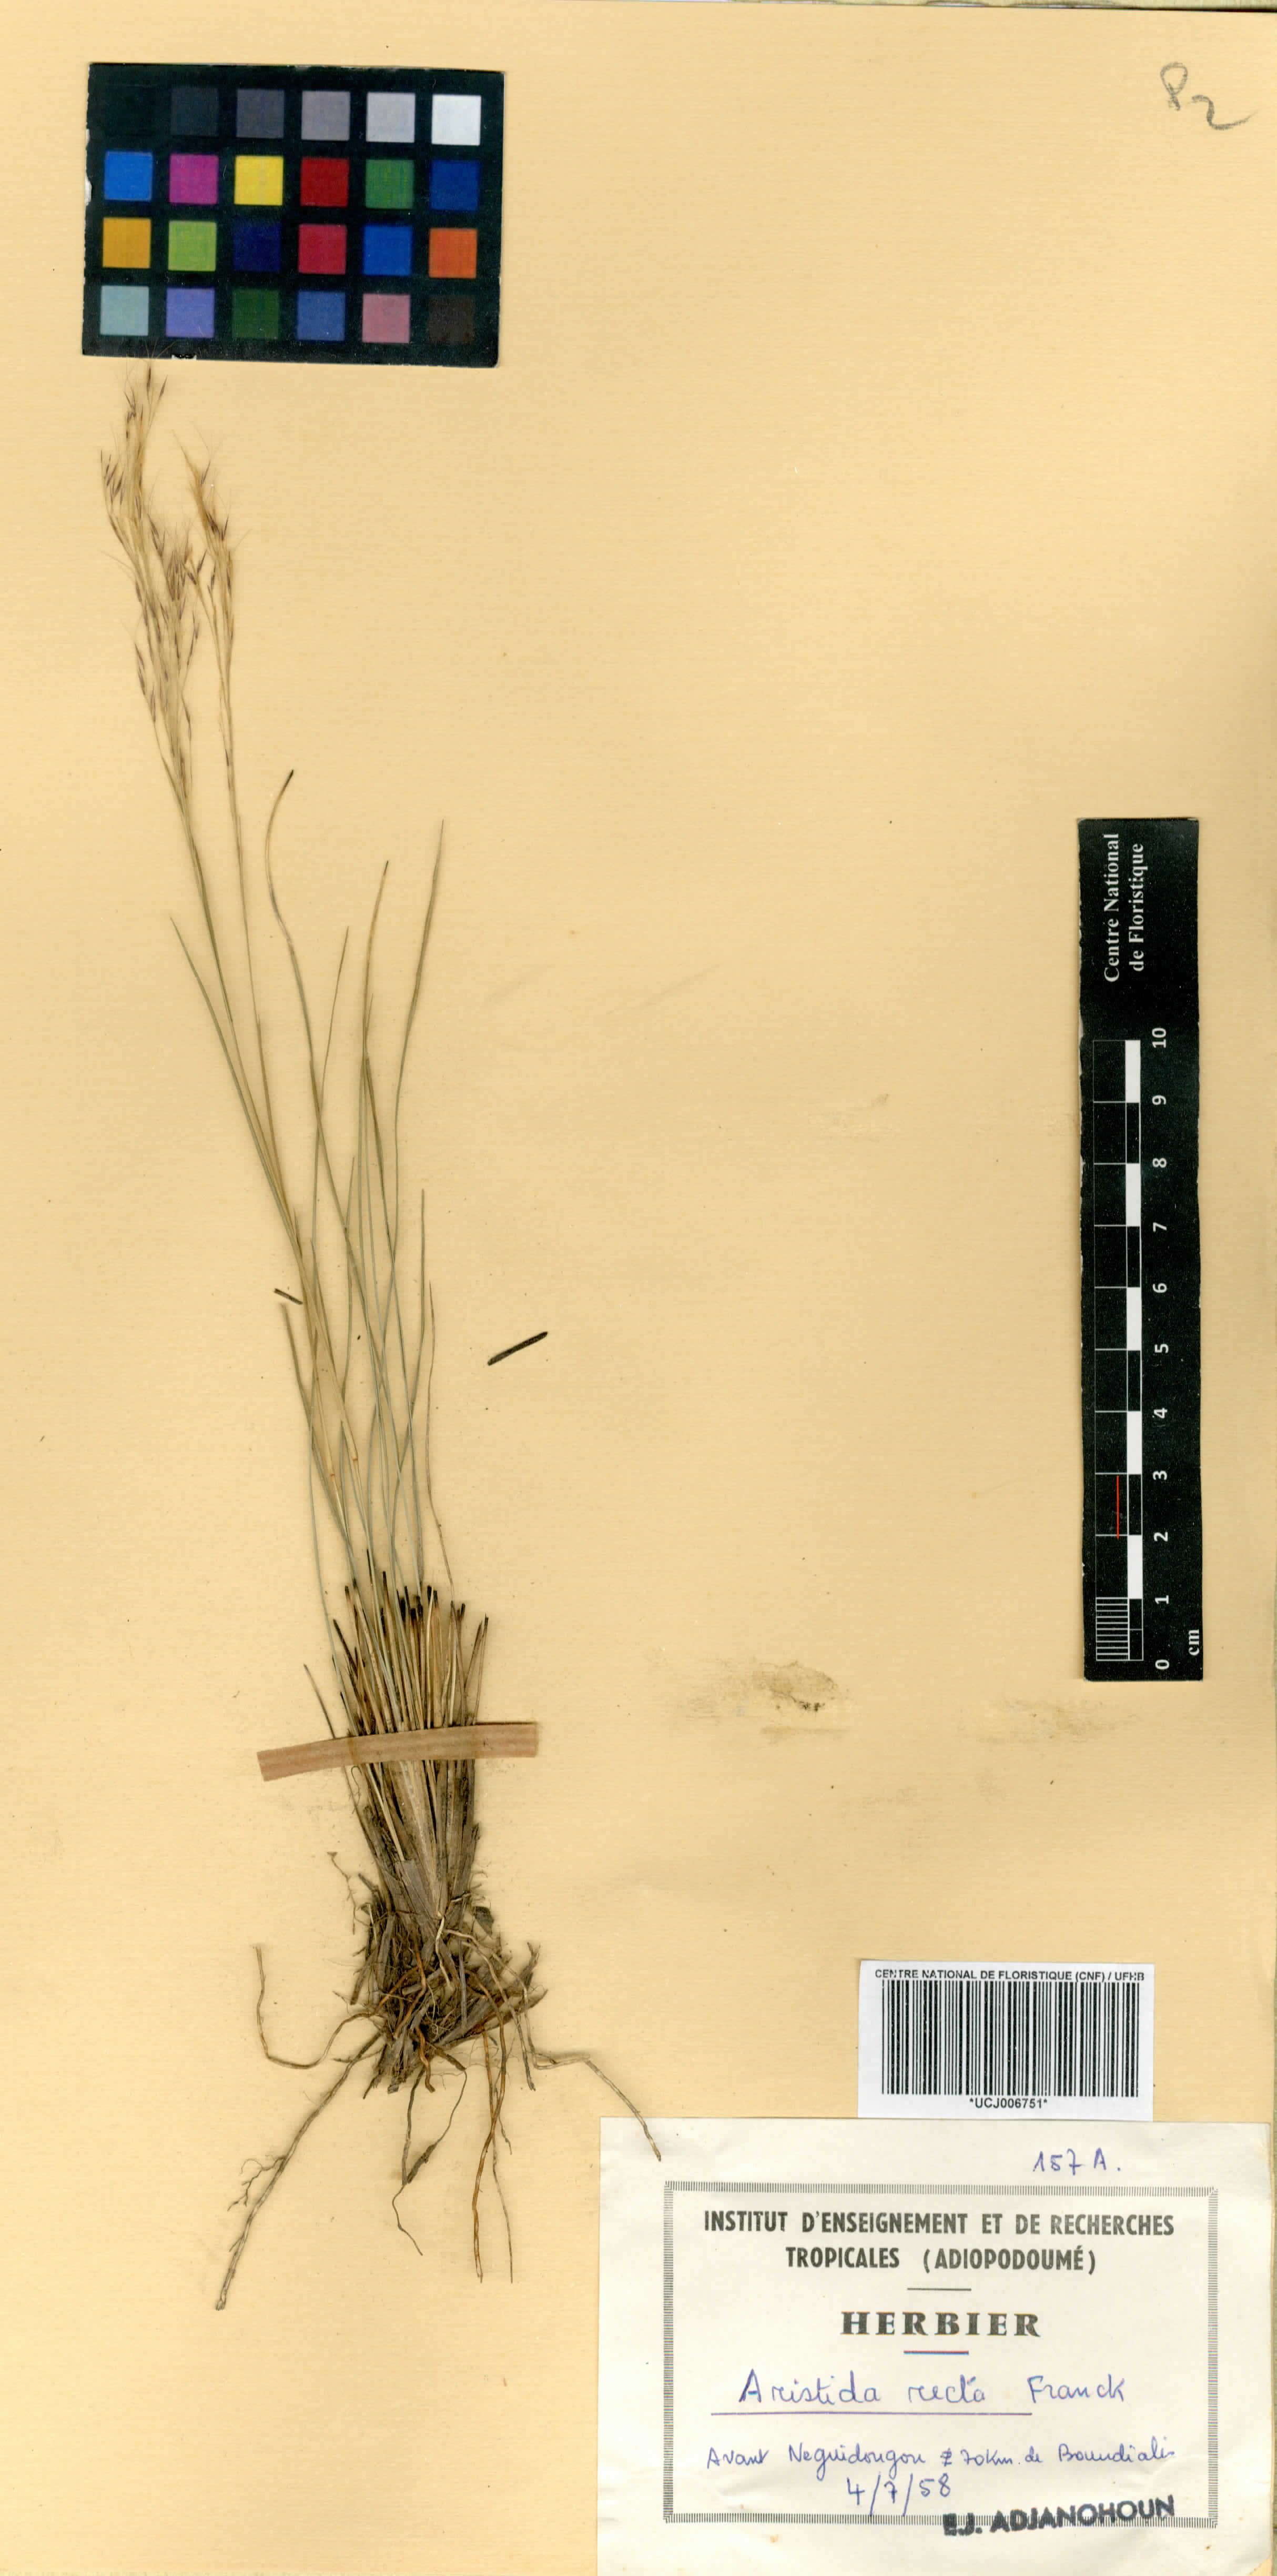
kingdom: Plantae
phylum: Tracheophyta
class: Liliopsida
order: Poales
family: Poaceae
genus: Aristida
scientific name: Aristida recta
